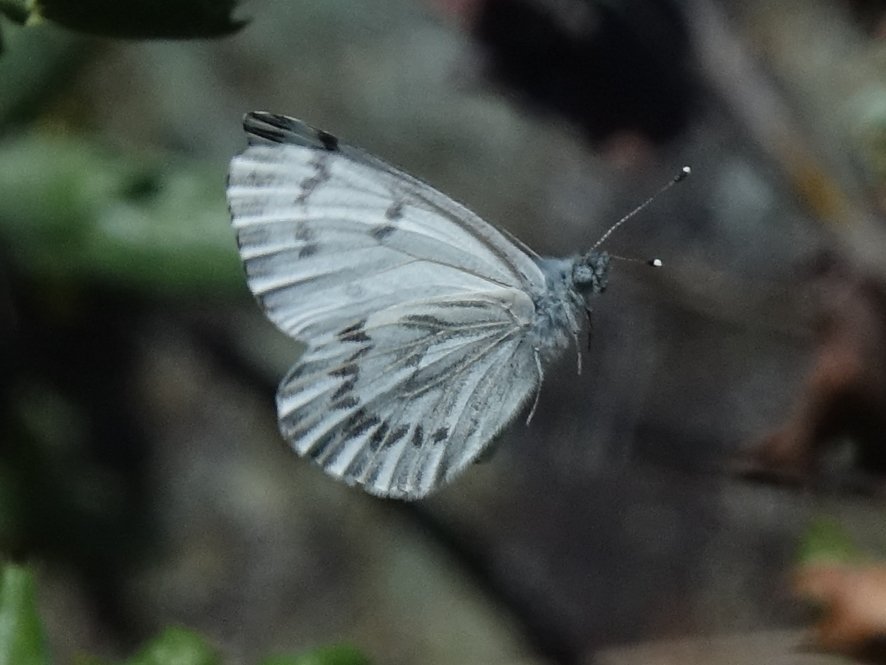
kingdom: Animalia
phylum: Arthropoda
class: Insecta
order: Lepidoptera
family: Pieridae
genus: Pontia
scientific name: Pontia sisymbrii
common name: Spring White
